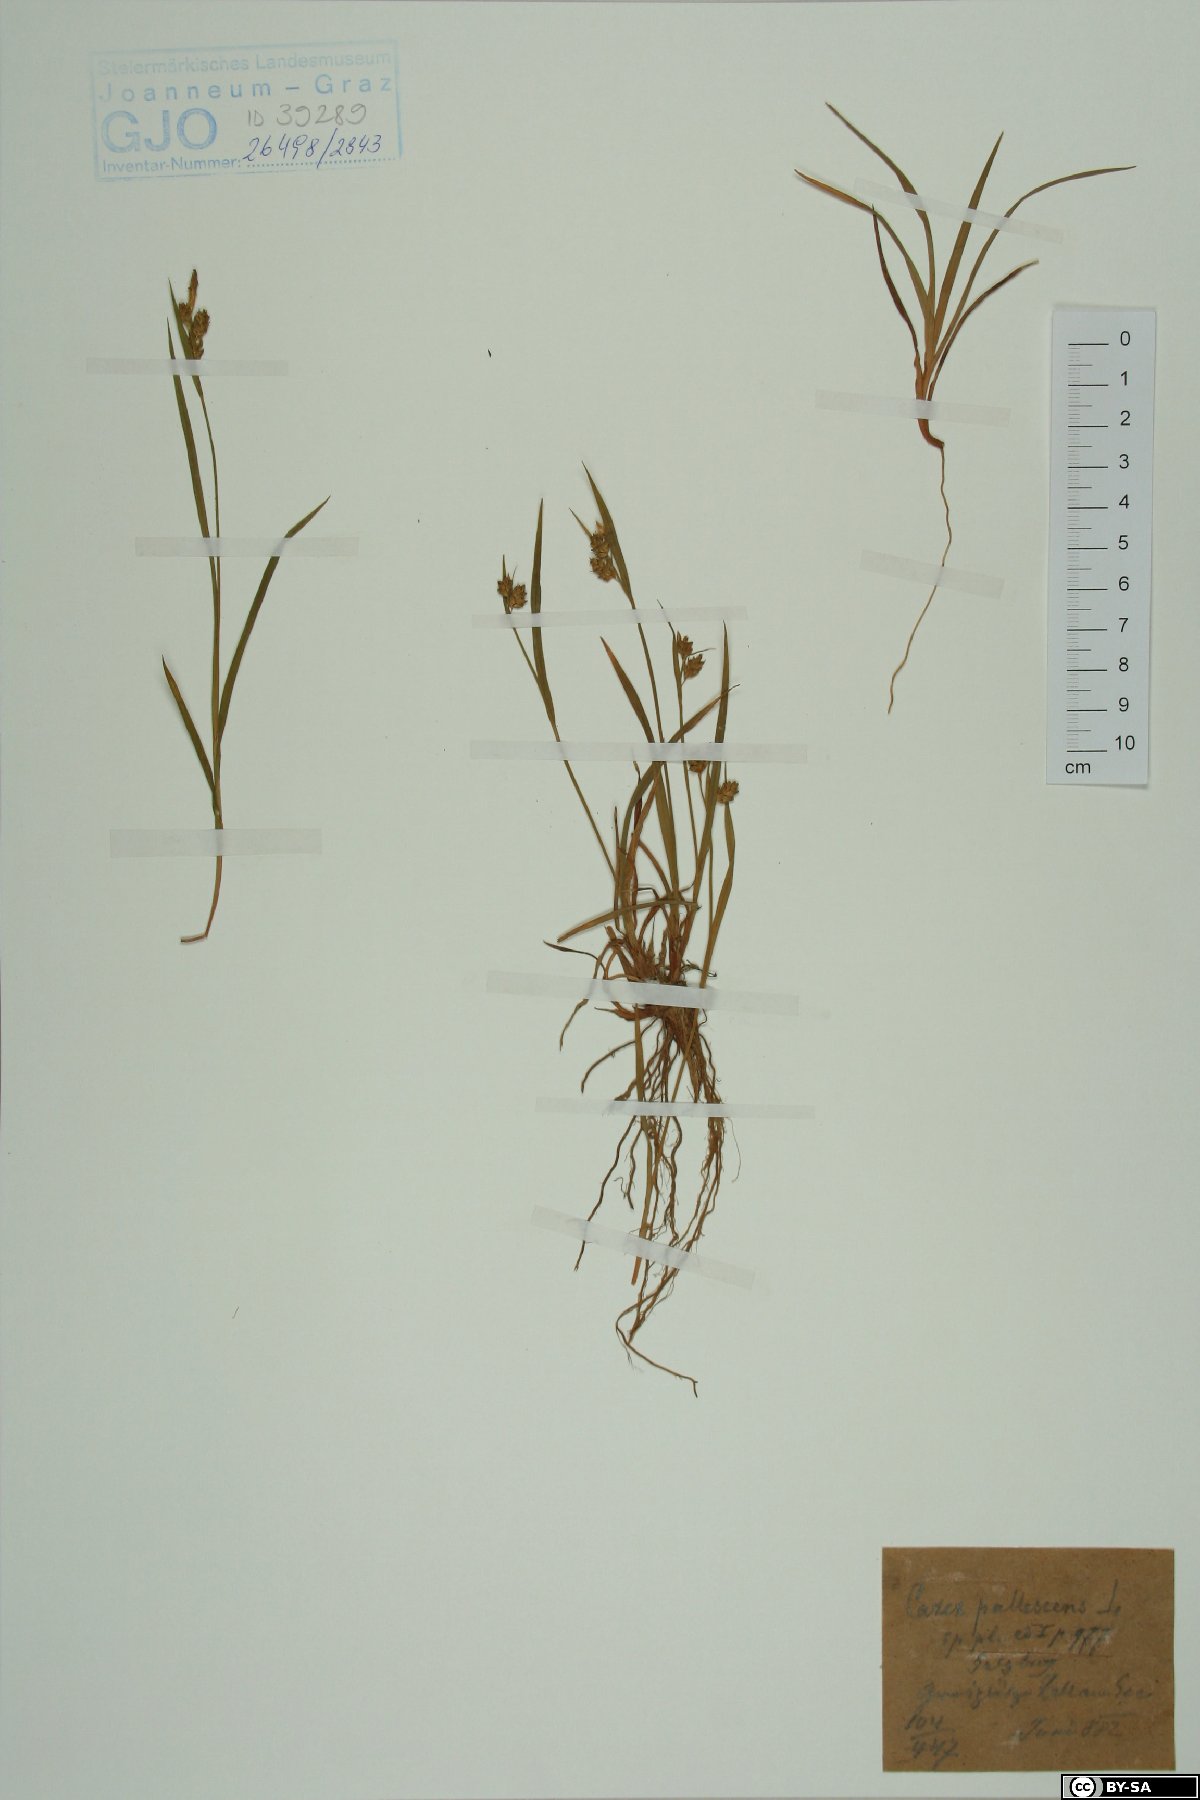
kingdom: Plantae
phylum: Tracheophyta
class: Liliopsida
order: Poales
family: Cyperaceae
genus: Carex
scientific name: Carex pallescens
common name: Pale sedge
